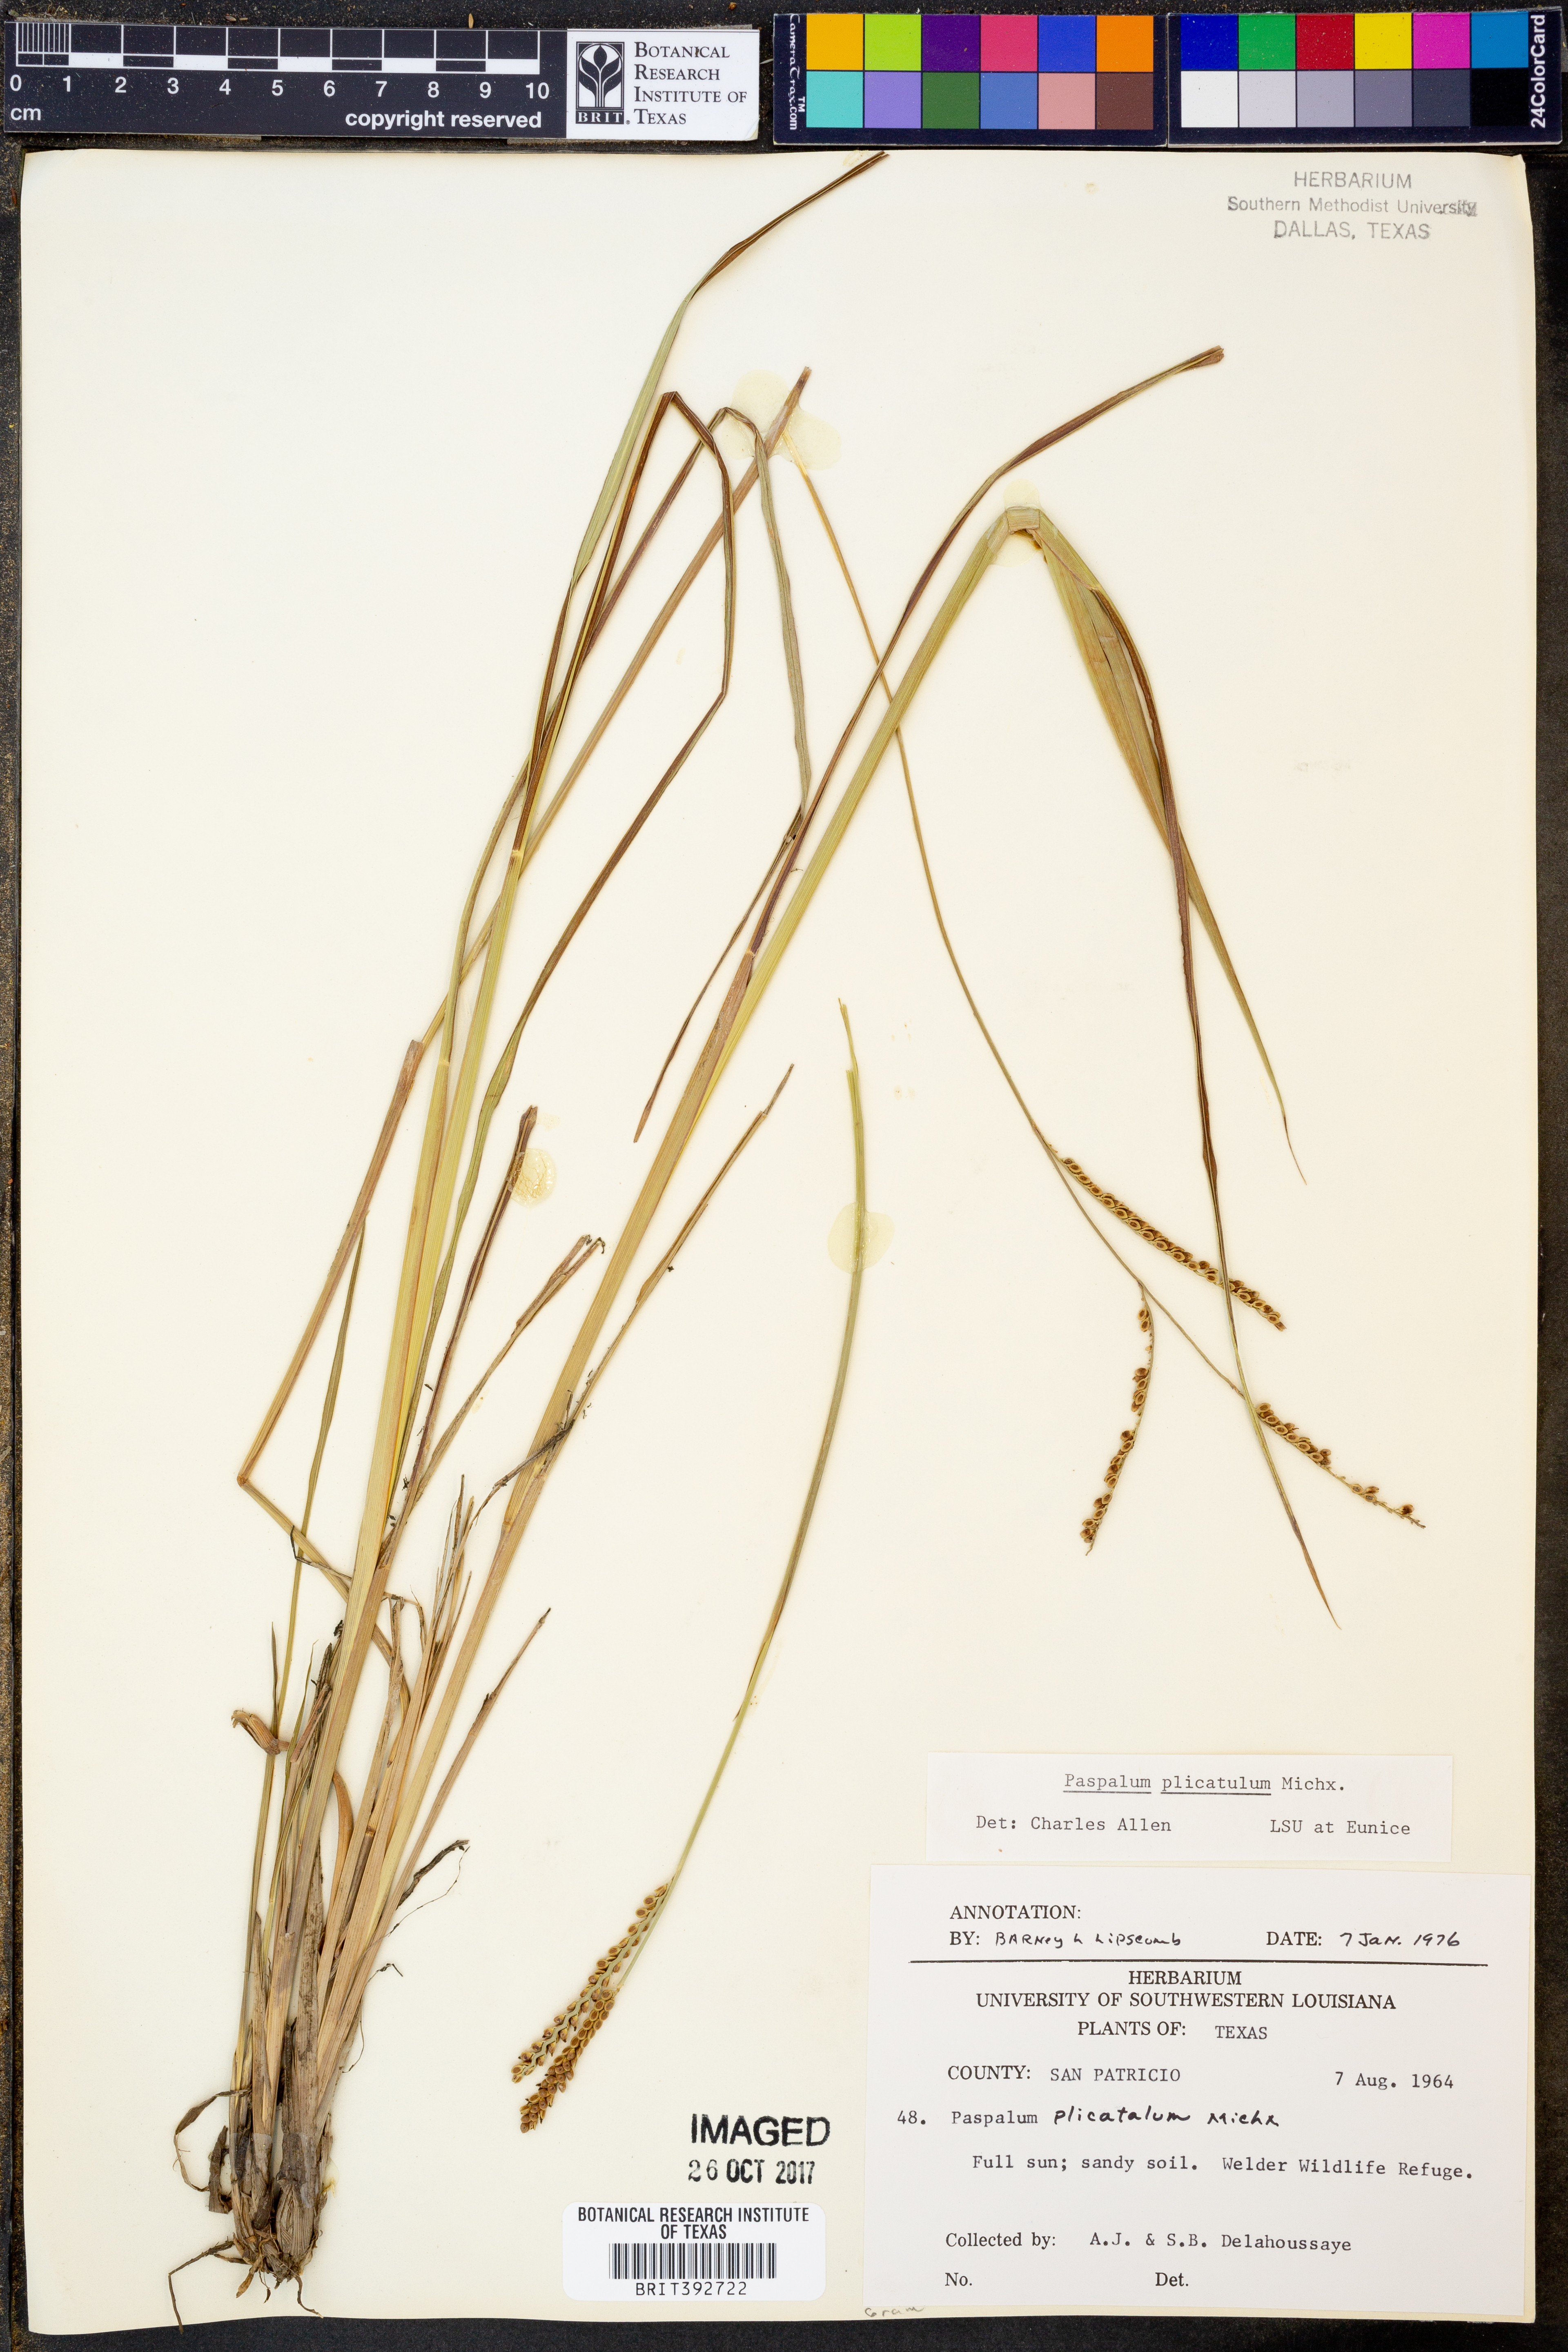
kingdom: Plantae
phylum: Tracheophyta
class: Liliopsida
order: Poales
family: Poaceae
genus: Paspalum
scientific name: Paspalum plicatulum
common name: Top paspalum
